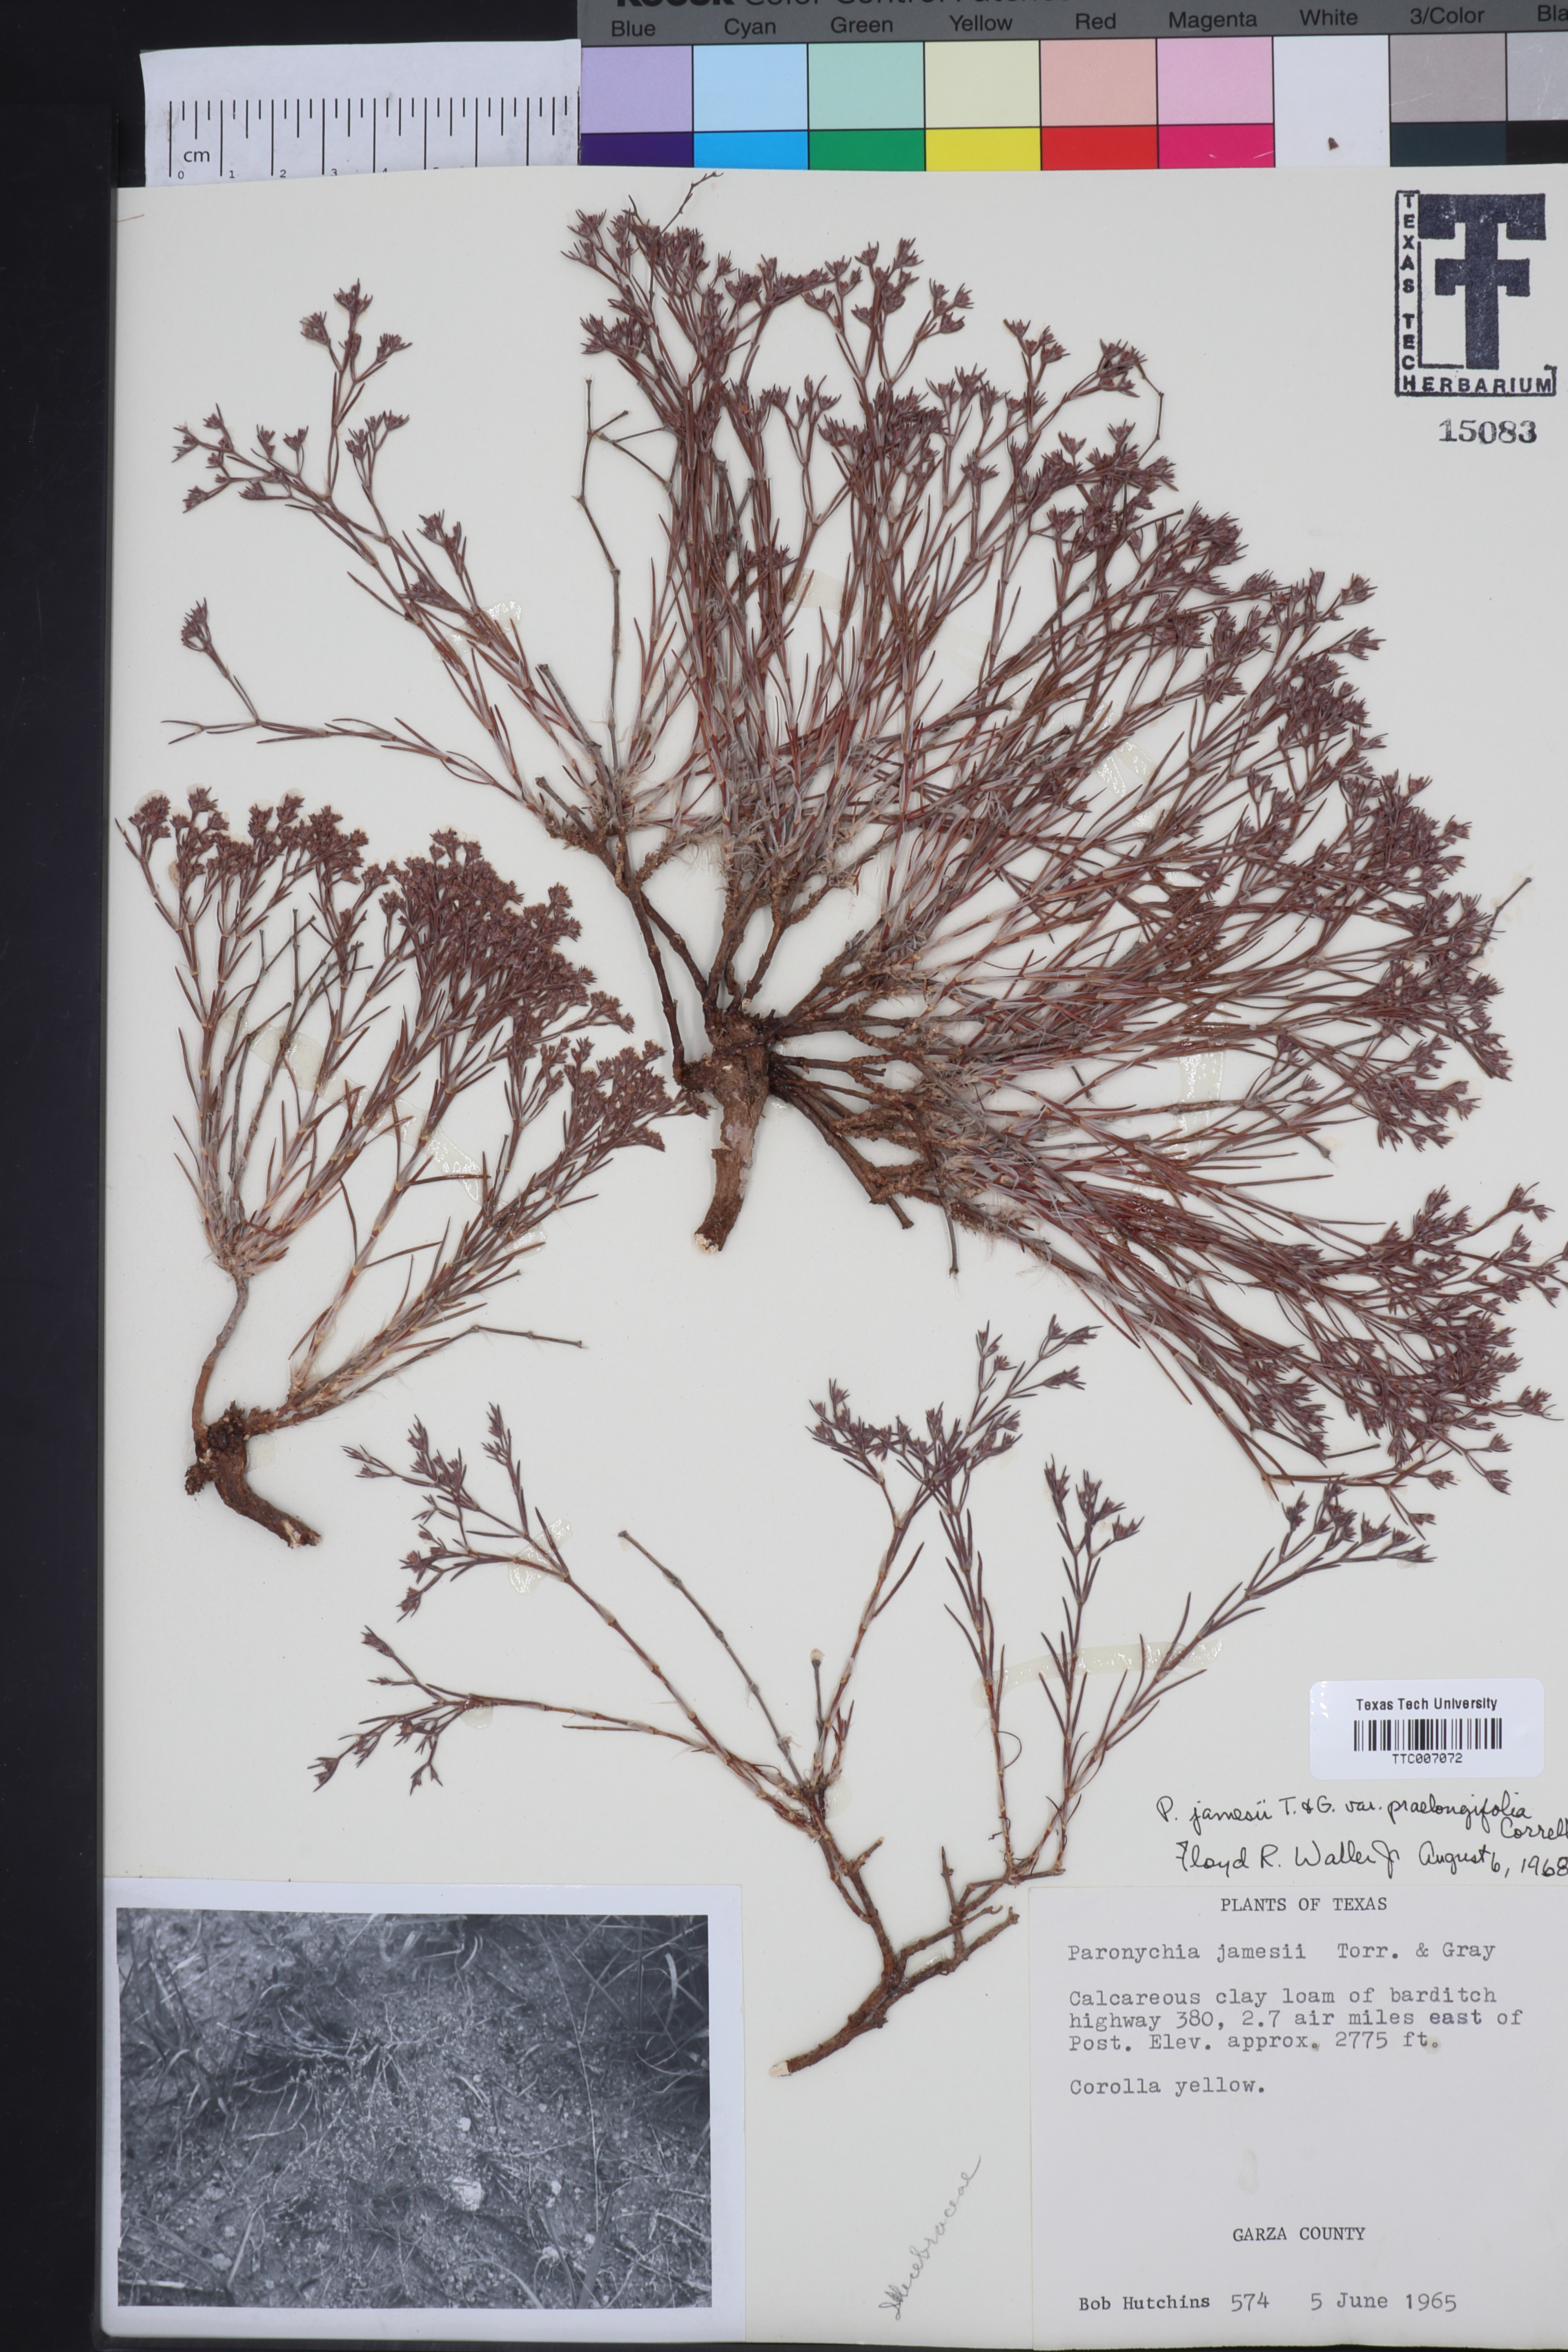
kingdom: Plantae
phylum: Tracheophyta
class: Magnoliopsida
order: Caryophyllales
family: Caryophyllaceae
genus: Paronychia
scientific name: Paronychia jamesii
